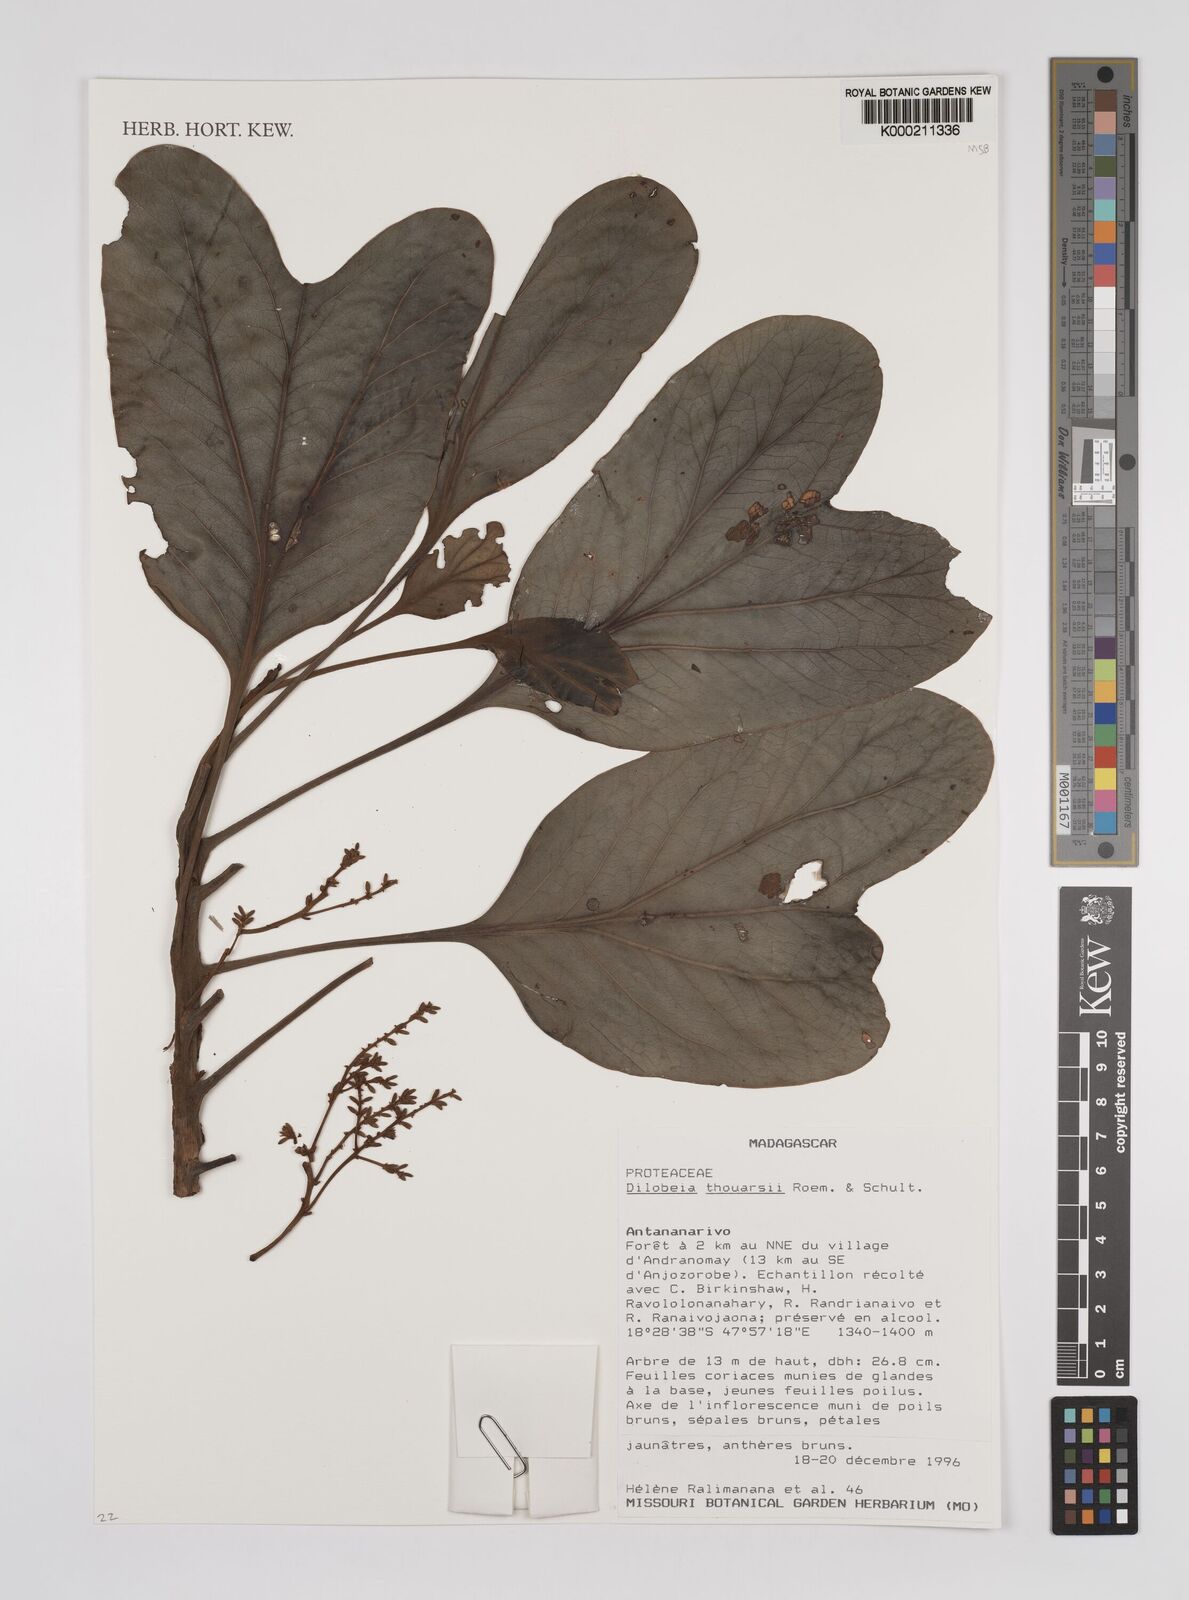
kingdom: Plantae
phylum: Tracheophyta
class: Magnoliopsida
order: Proteales
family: Proteaceae
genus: Dilobeia
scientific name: Dilobeia thouarsii
